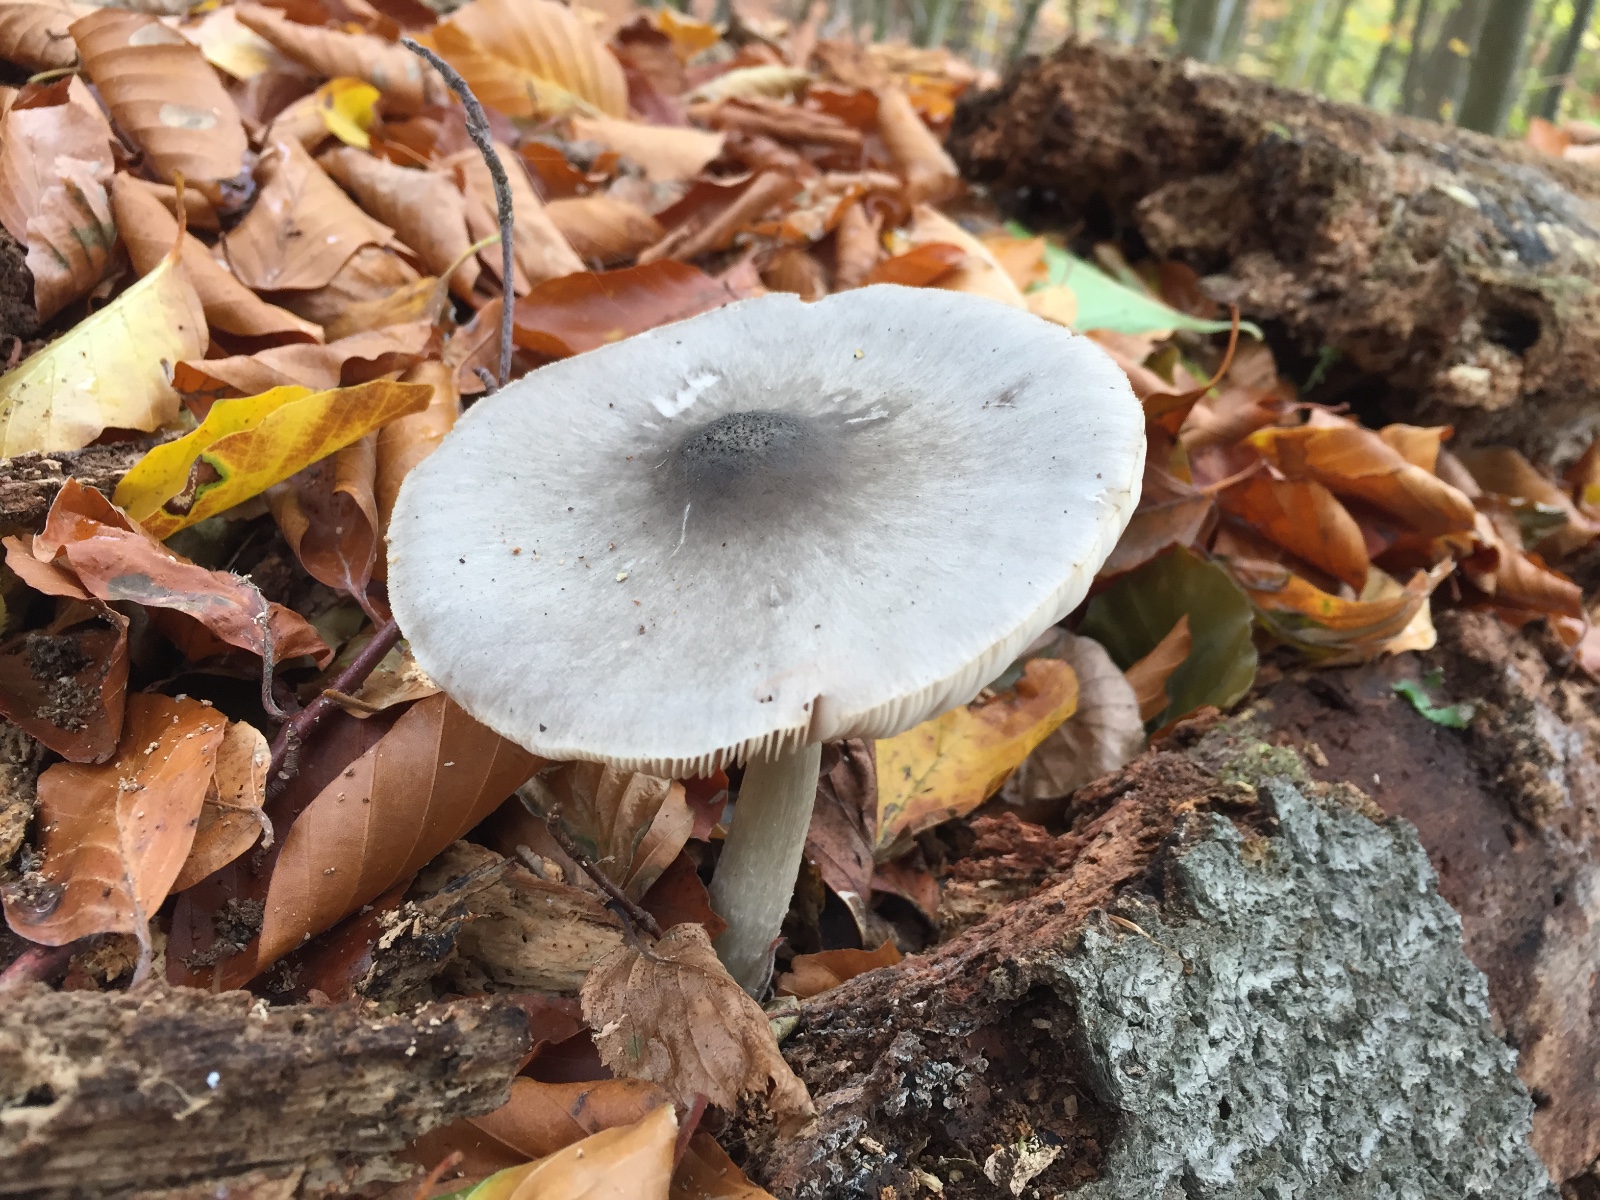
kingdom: Fungi
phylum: Basidiomycota
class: Agaricomycetes
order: Agaricales
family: Pluteaceae
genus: Pluteus
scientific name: Pluteus salicinus
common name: stiv skærmhat
